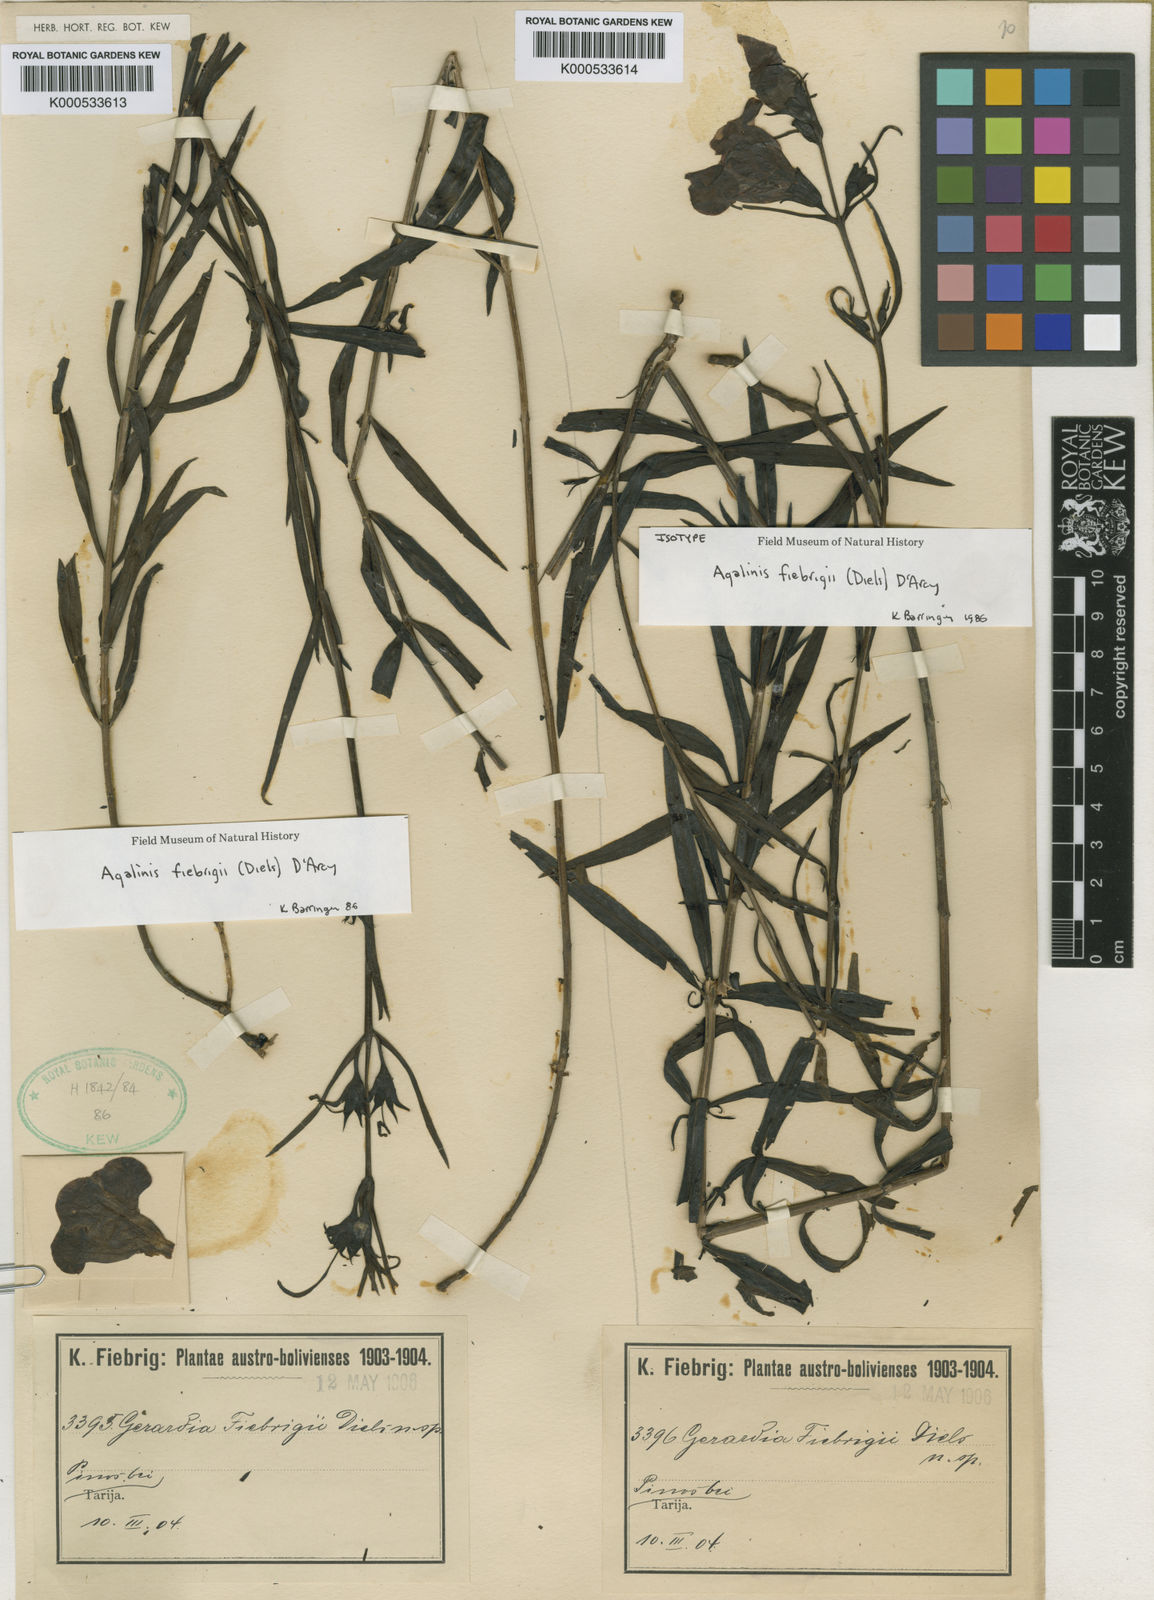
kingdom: Plantae
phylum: Tracheophyta
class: Magnoliopsida
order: Lamiales
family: Orobanchaceae
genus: Agalinis
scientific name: Agalinis fiebrigii
